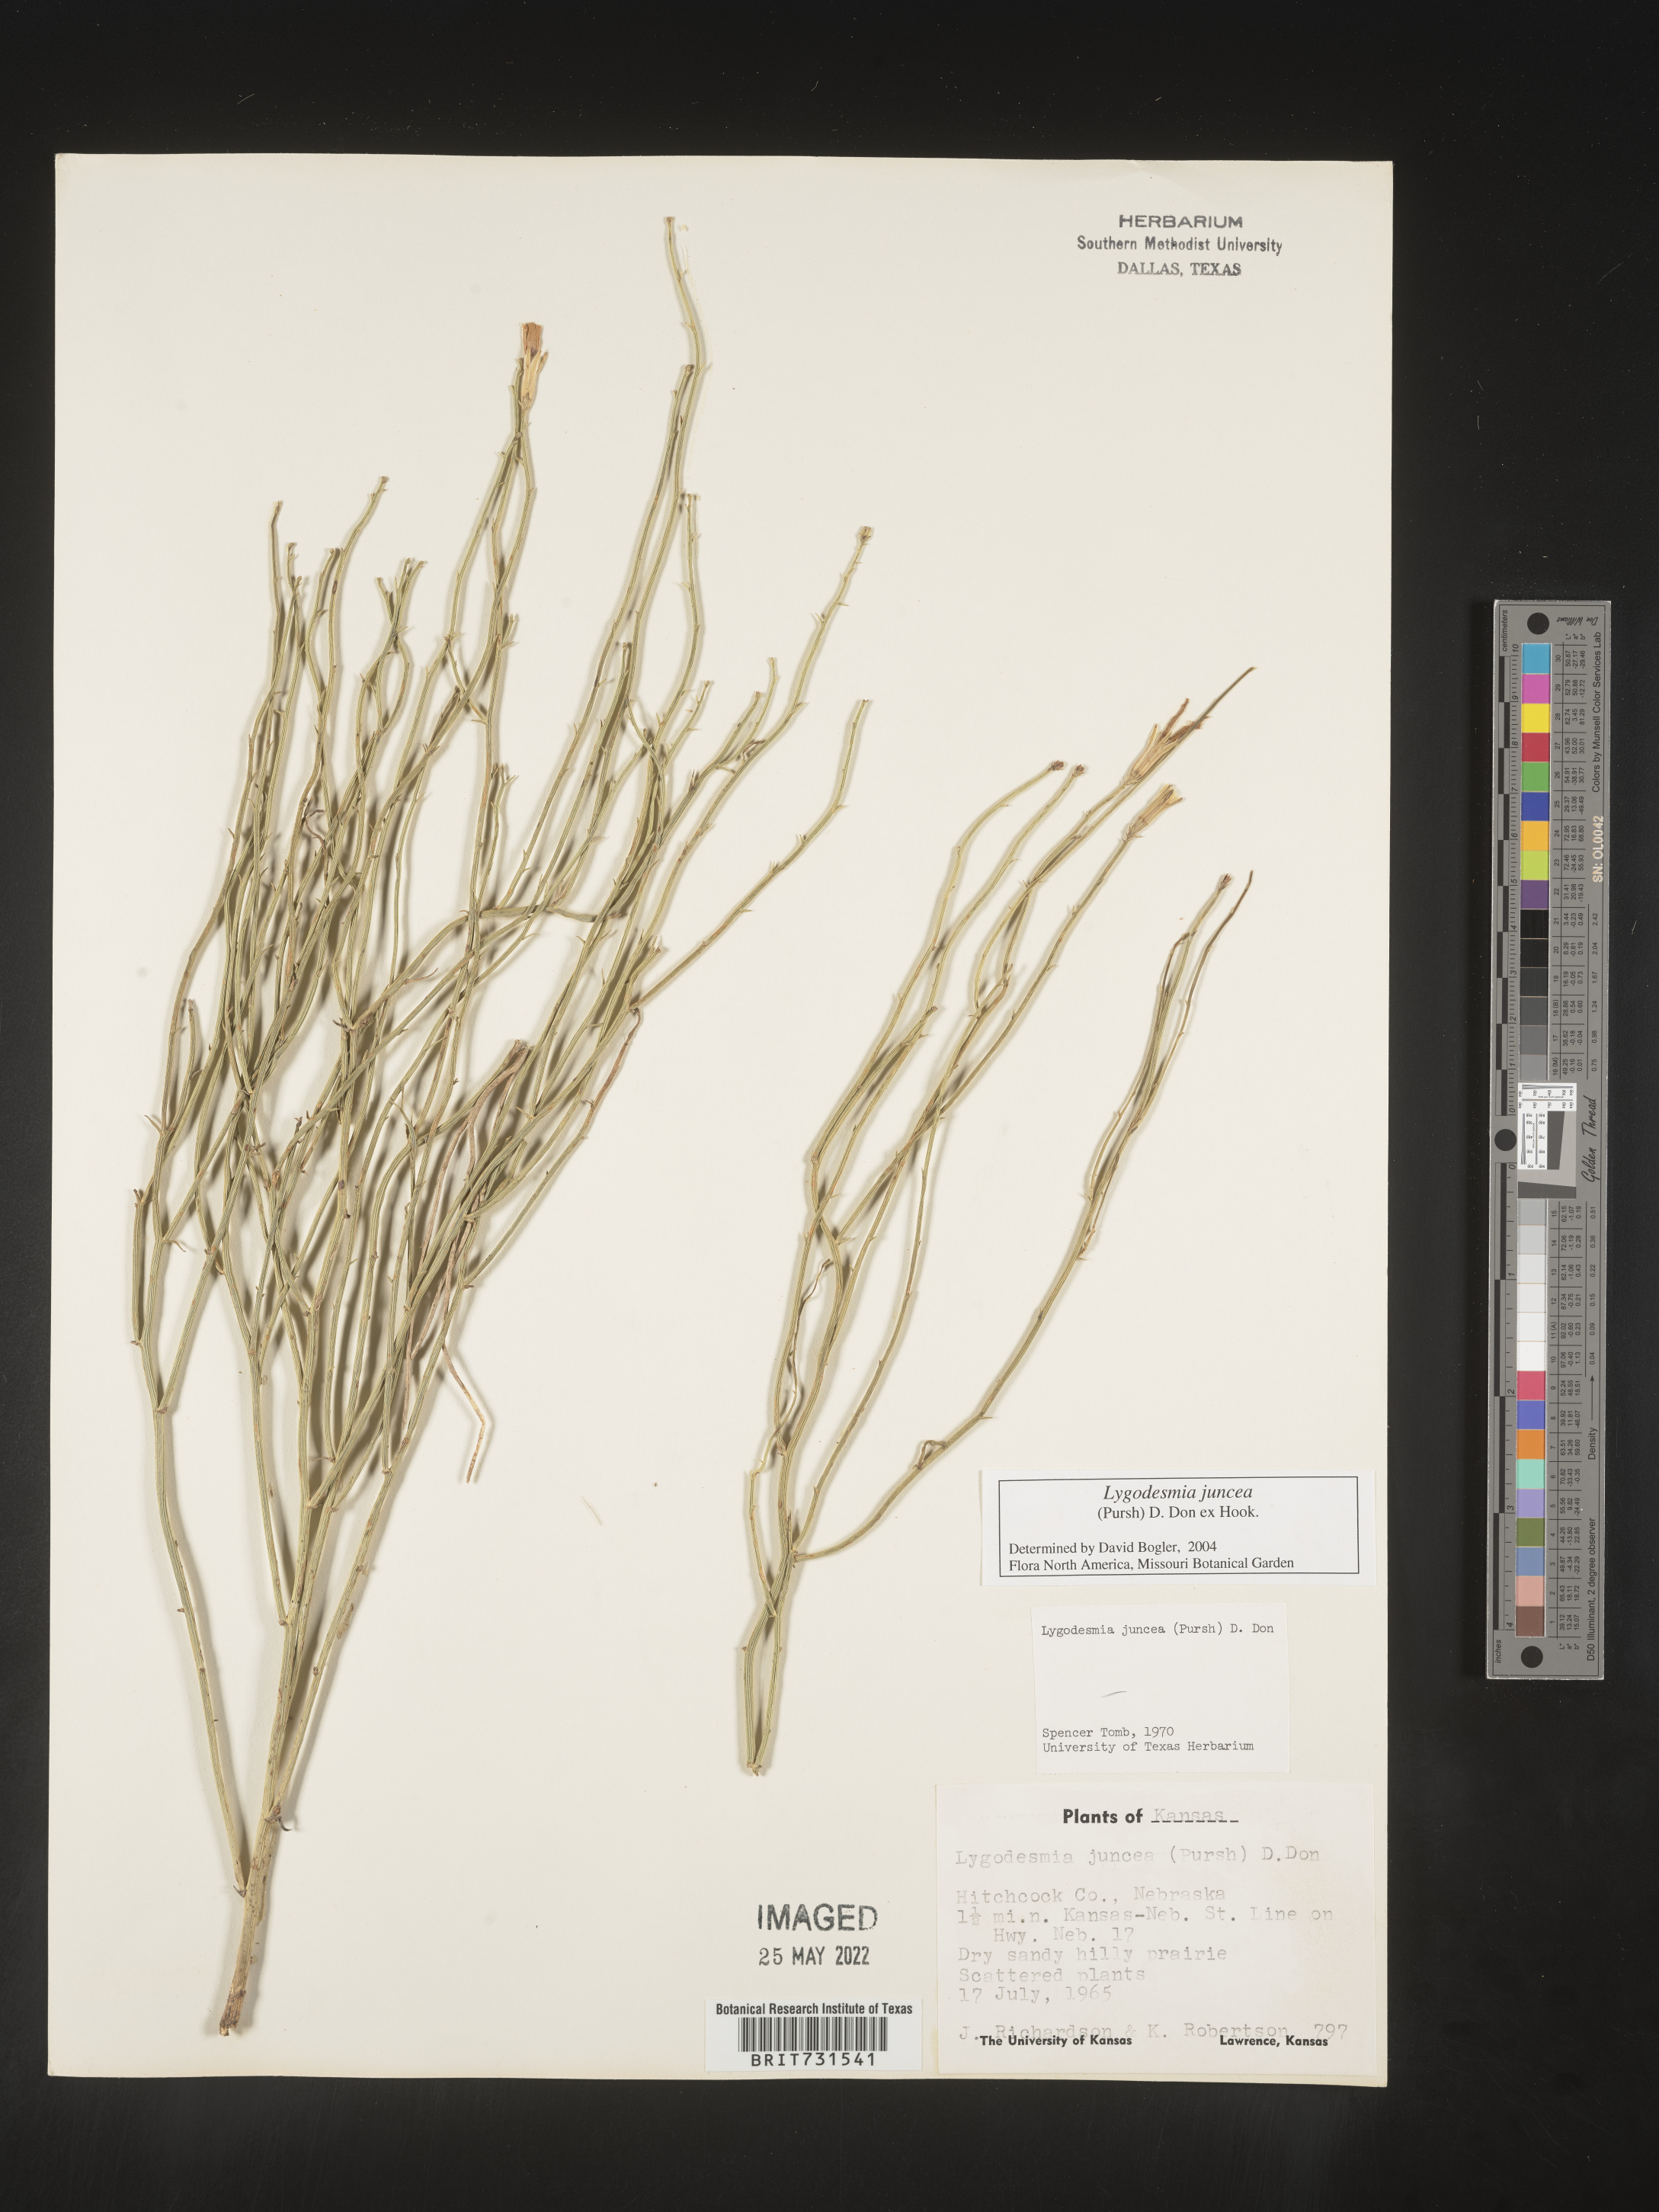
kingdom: Plantae
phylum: Tracheophyta
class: Magnoliopsida
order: Asterales
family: Asteraceae
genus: Lygodesmia
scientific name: Lygodesmia juncea
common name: Common skeletonweed
